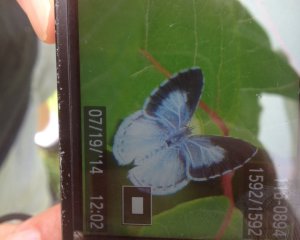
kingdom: Animalia
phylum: Arthropoda
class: Insecta
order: Lepidoptera
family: Lycaenidae
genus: Cyaniris
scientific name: Cyaniris neglecta
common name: Summer Azure
